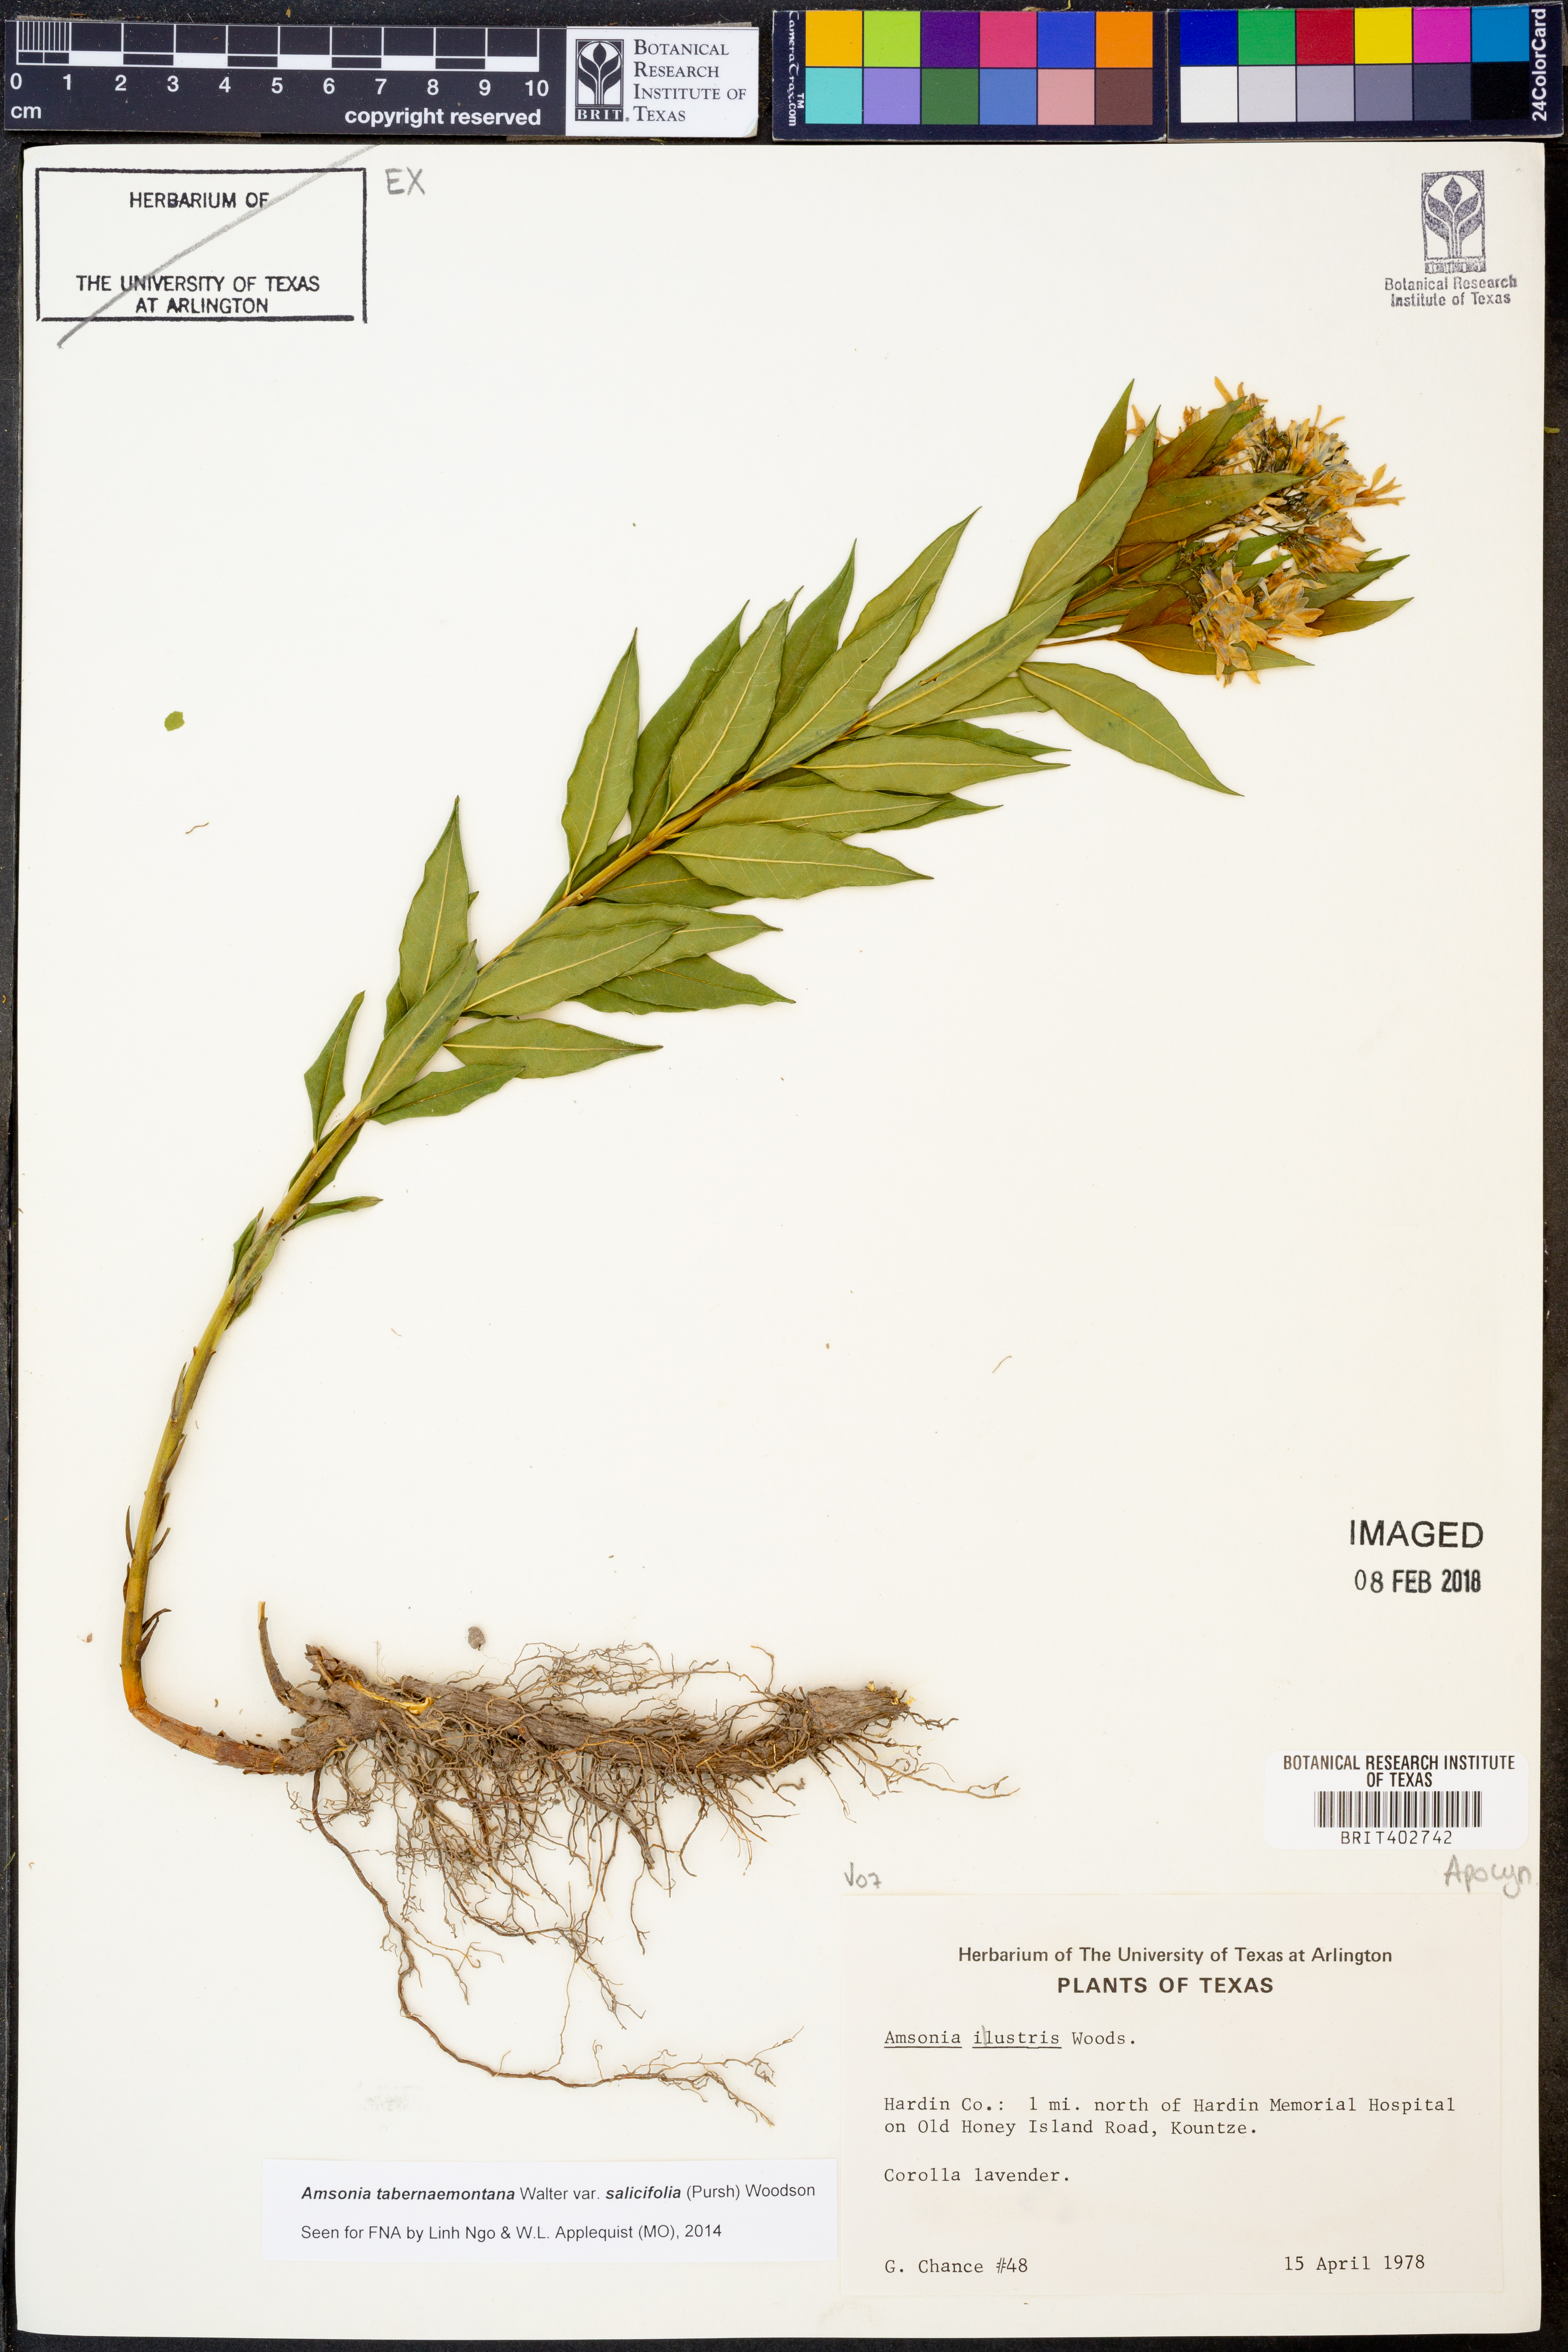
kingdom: Plantae
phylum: Tracheophyta
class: Magnoliopsida
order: Gentianales
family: Apocynaceae
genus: Amsonia
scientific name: Amsonia tabernaemontana
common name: Texas-star
